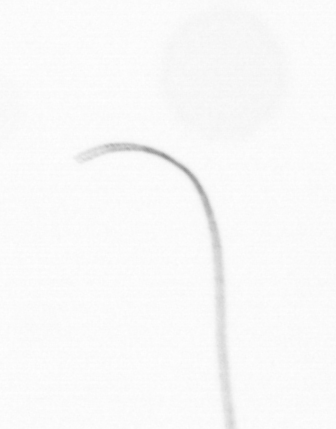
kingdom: Chromista
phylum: Ochrophyta
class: Bacillariophyceae
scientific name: Bacillariophyceae
